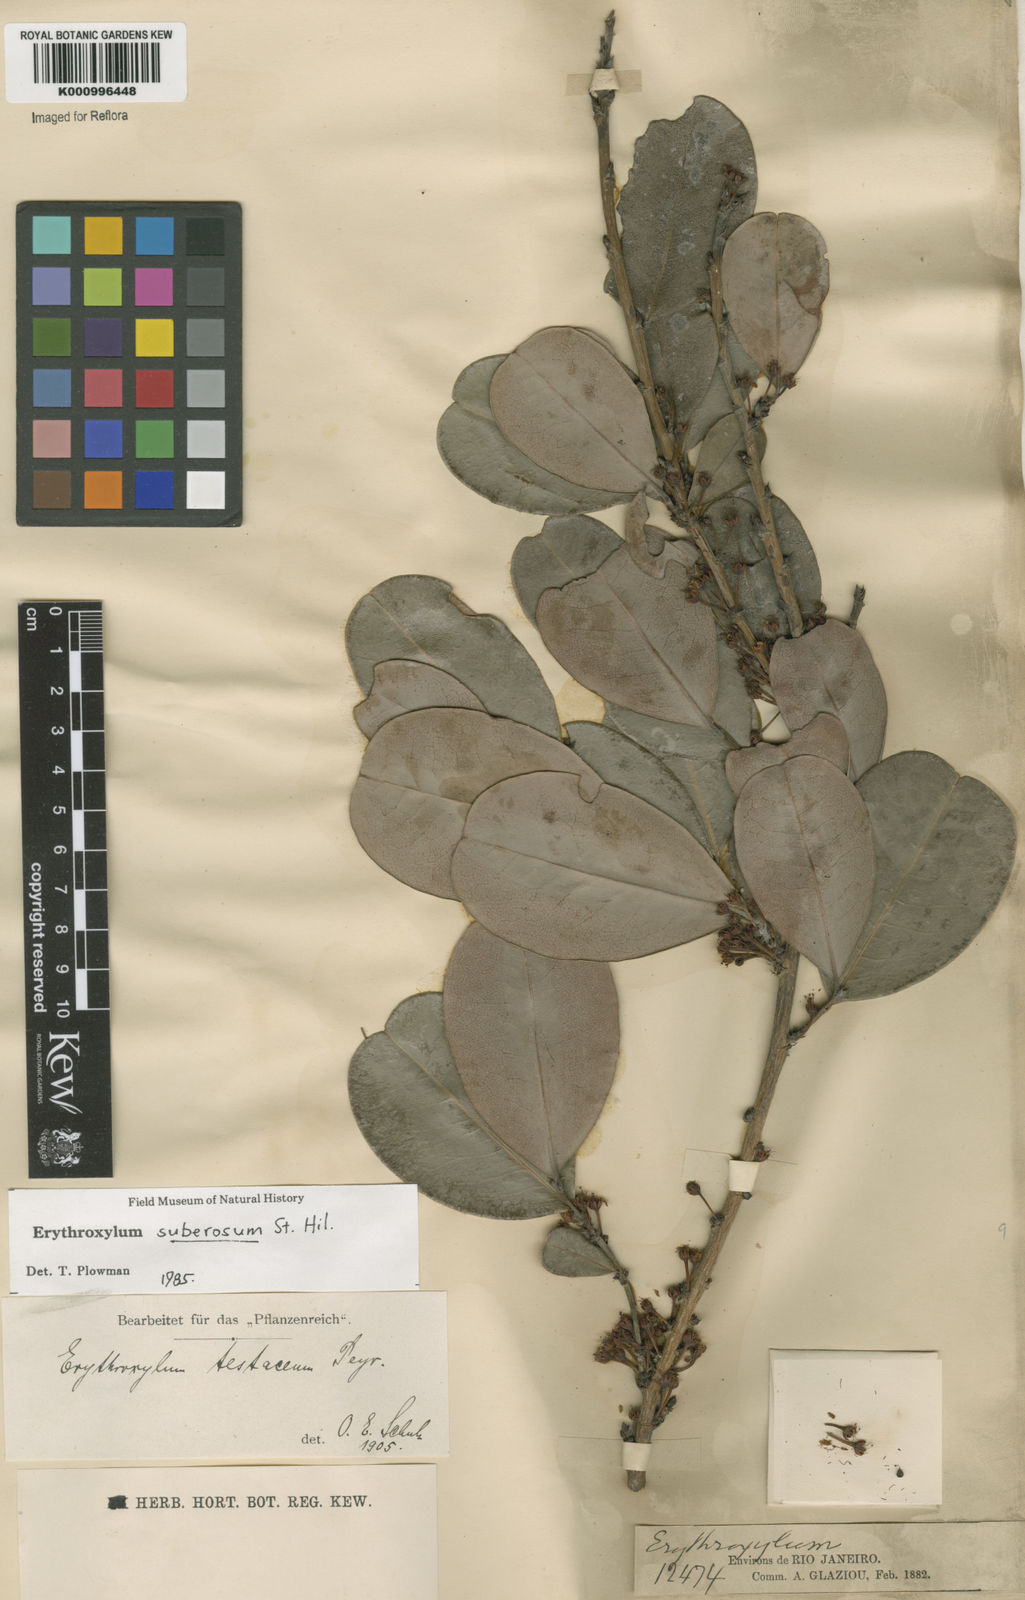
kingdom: Plantae
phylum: Tracheophyta
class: Magnoliopsida
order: Malpighiales
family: Erythroxylaceae
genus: Erythroxylum
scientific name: Erythroxylum suberosum
